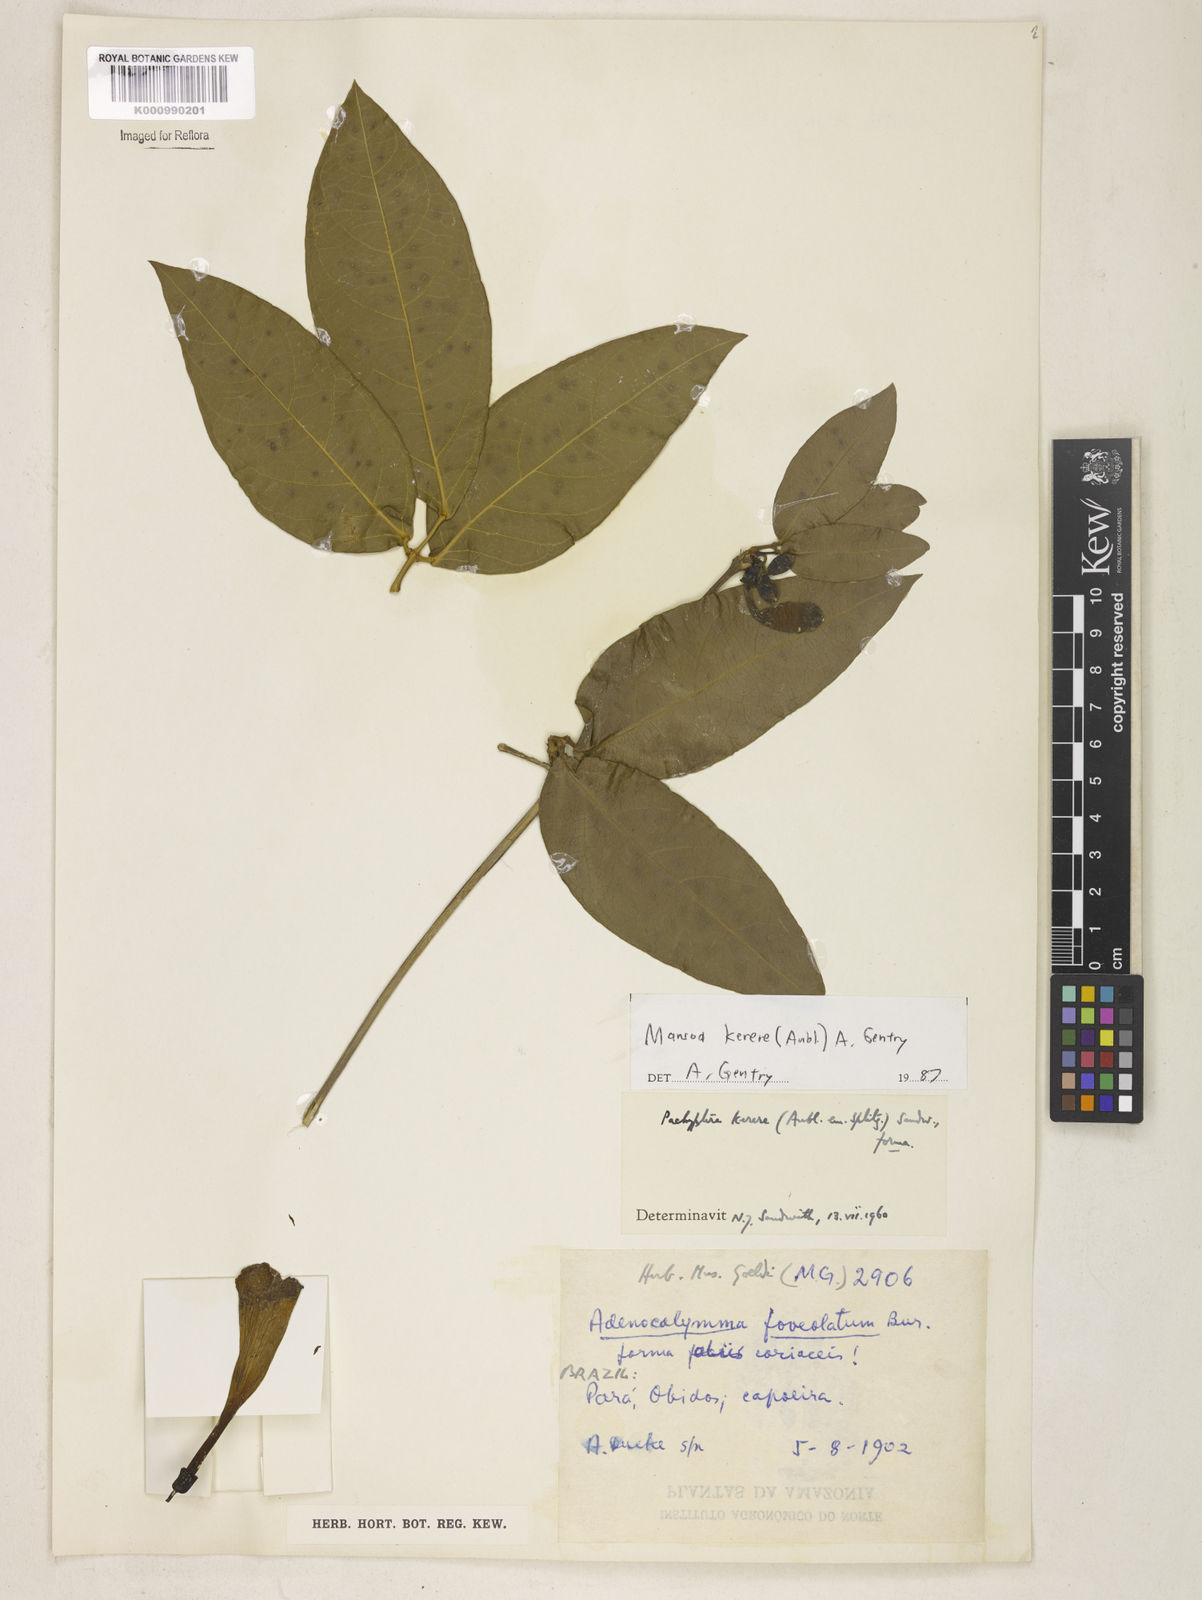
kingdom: Plantae
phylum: Tracheophyta
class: Magnoliopsida
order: Lamiales
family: Bignoniaceae
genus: Pachyptera
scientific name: Pachyptera kerere
